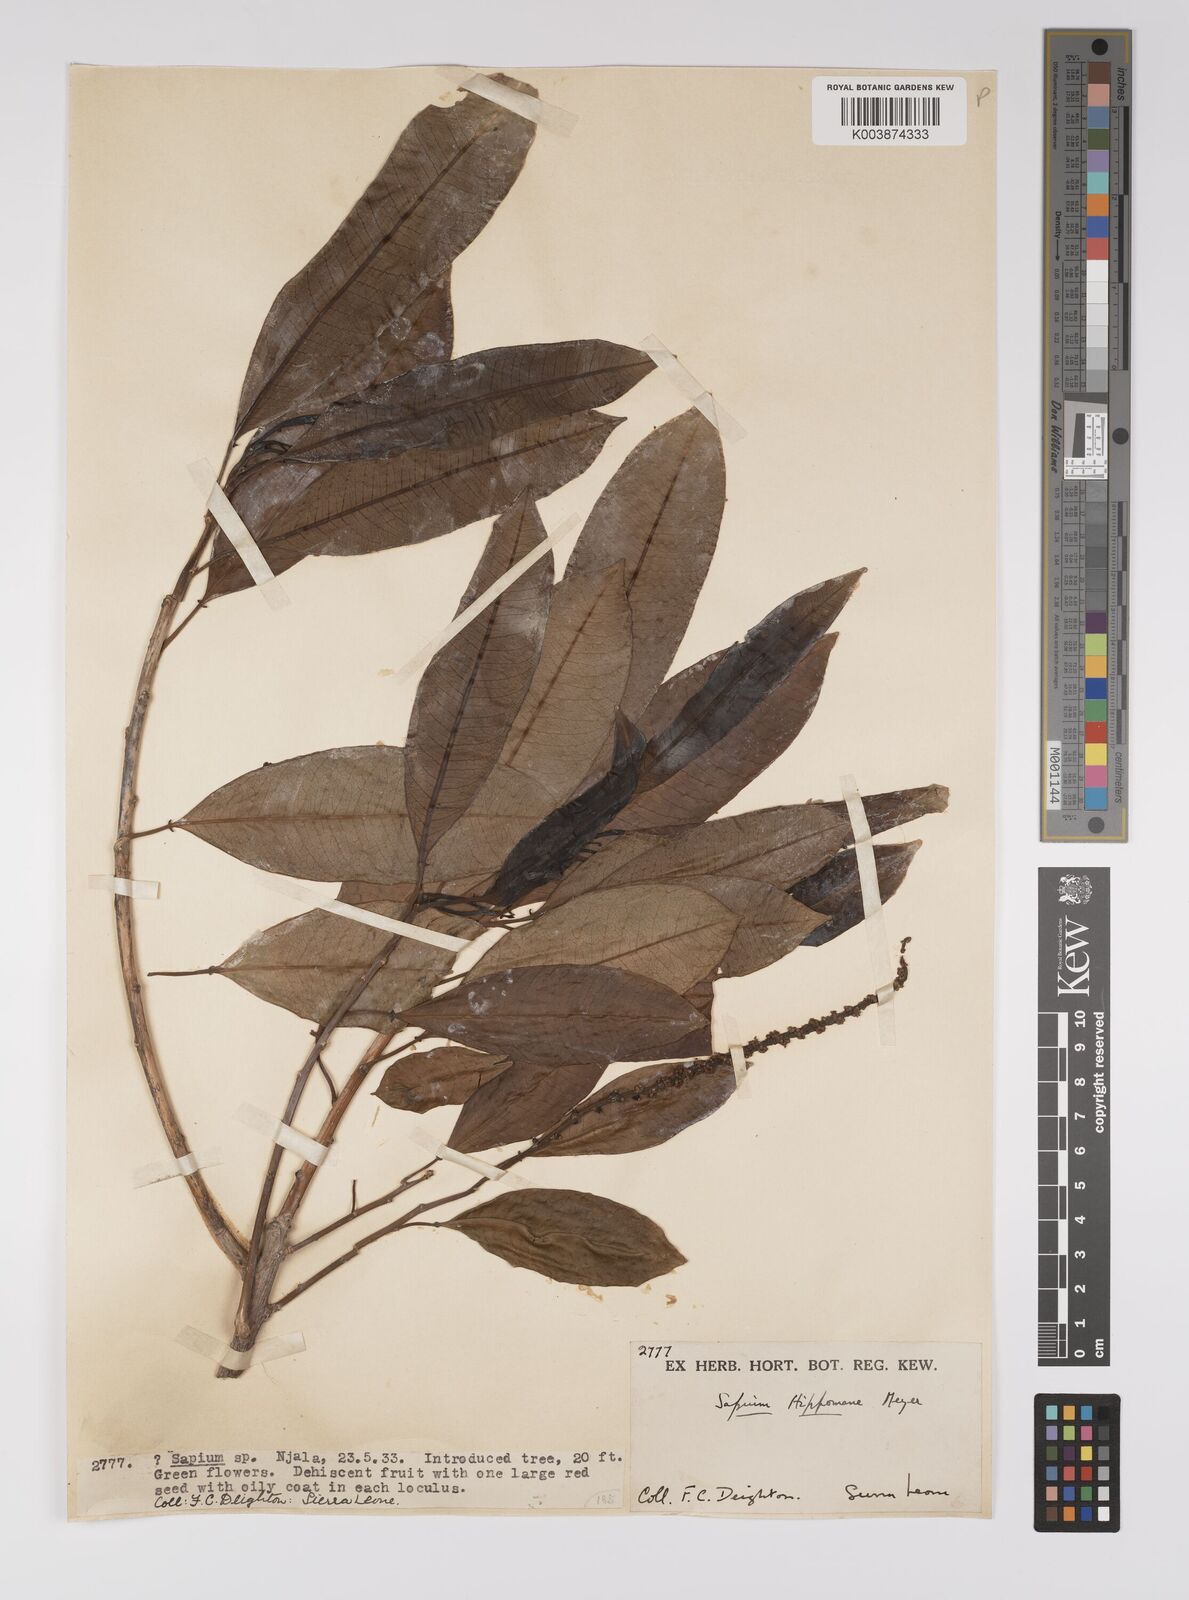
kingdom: Plantae
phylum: Tracheophyta
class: Magnoliopsida
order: Malpighiales
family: Euphorbiaceae
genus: Sapium
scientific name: Sapium glandulosum
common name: Milktree
